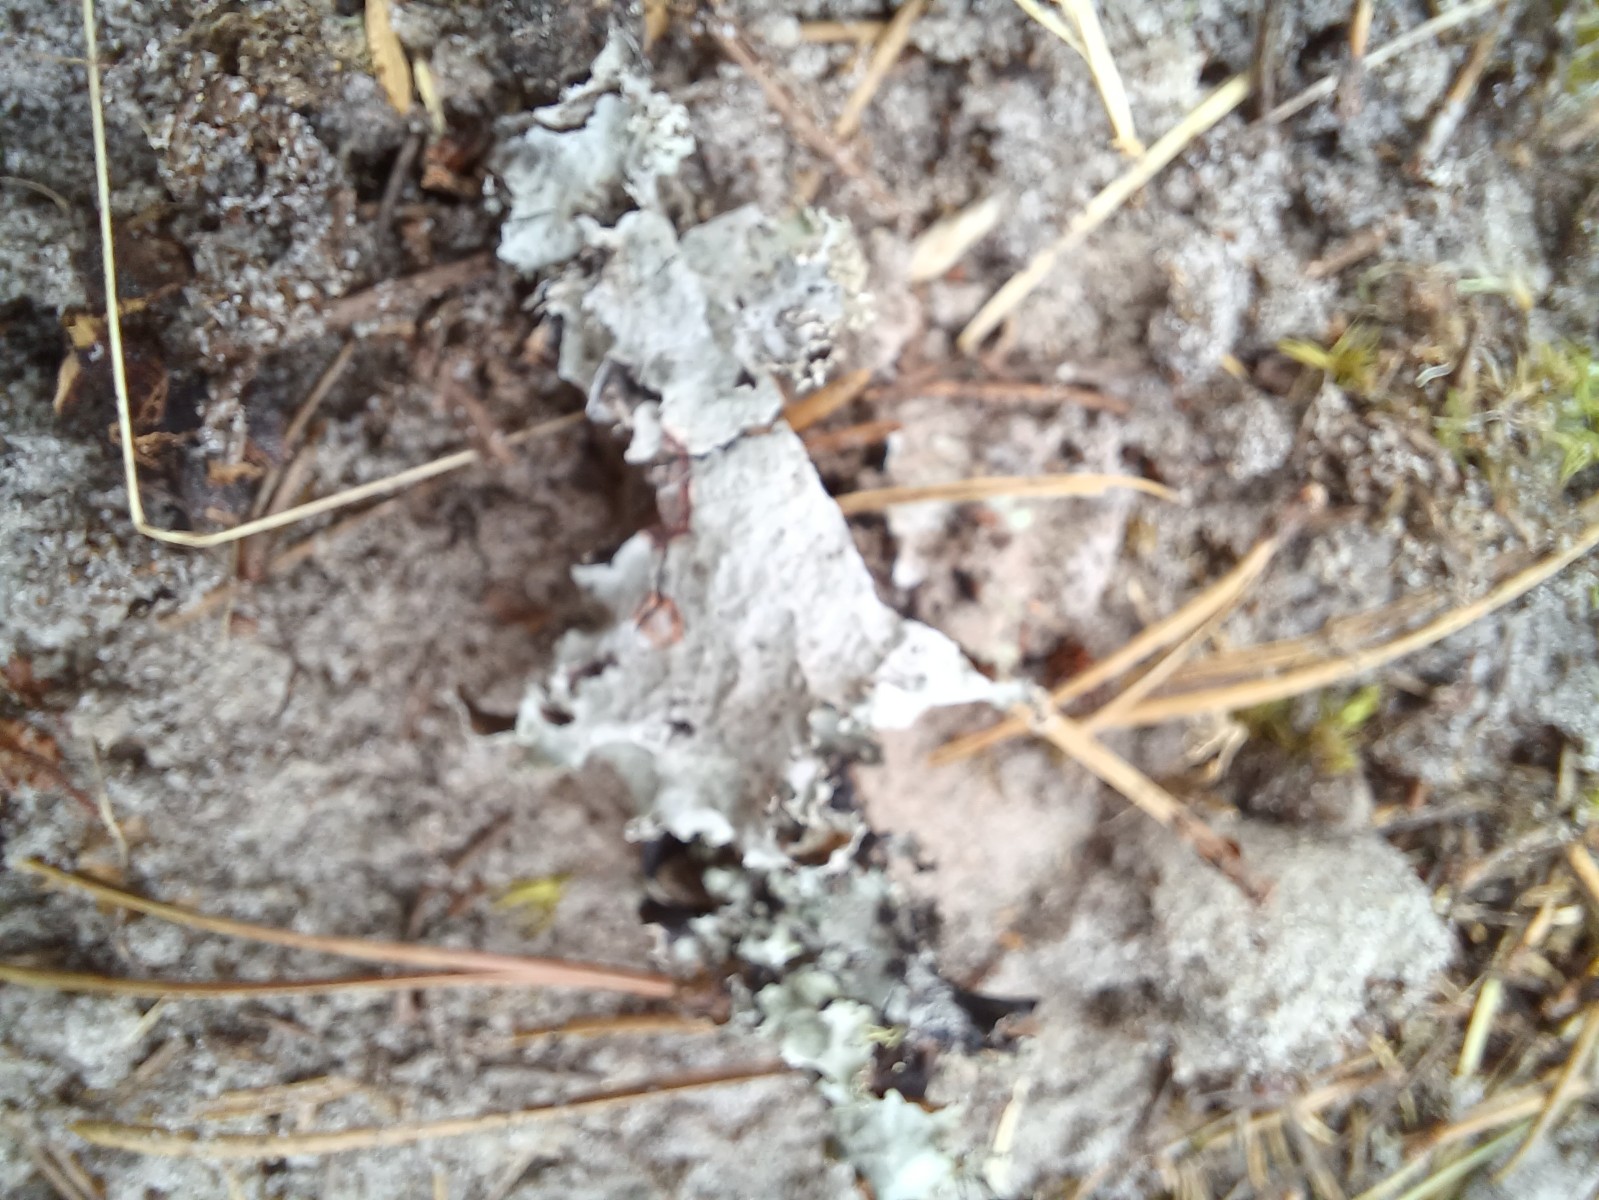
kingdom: Fungi
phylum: Ascomycota
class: Lecanoromycetes
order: Lecanorales
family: Parmeliaceae
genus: Platismatia
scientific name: Platismatia glauca
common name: blågrå papirlav
